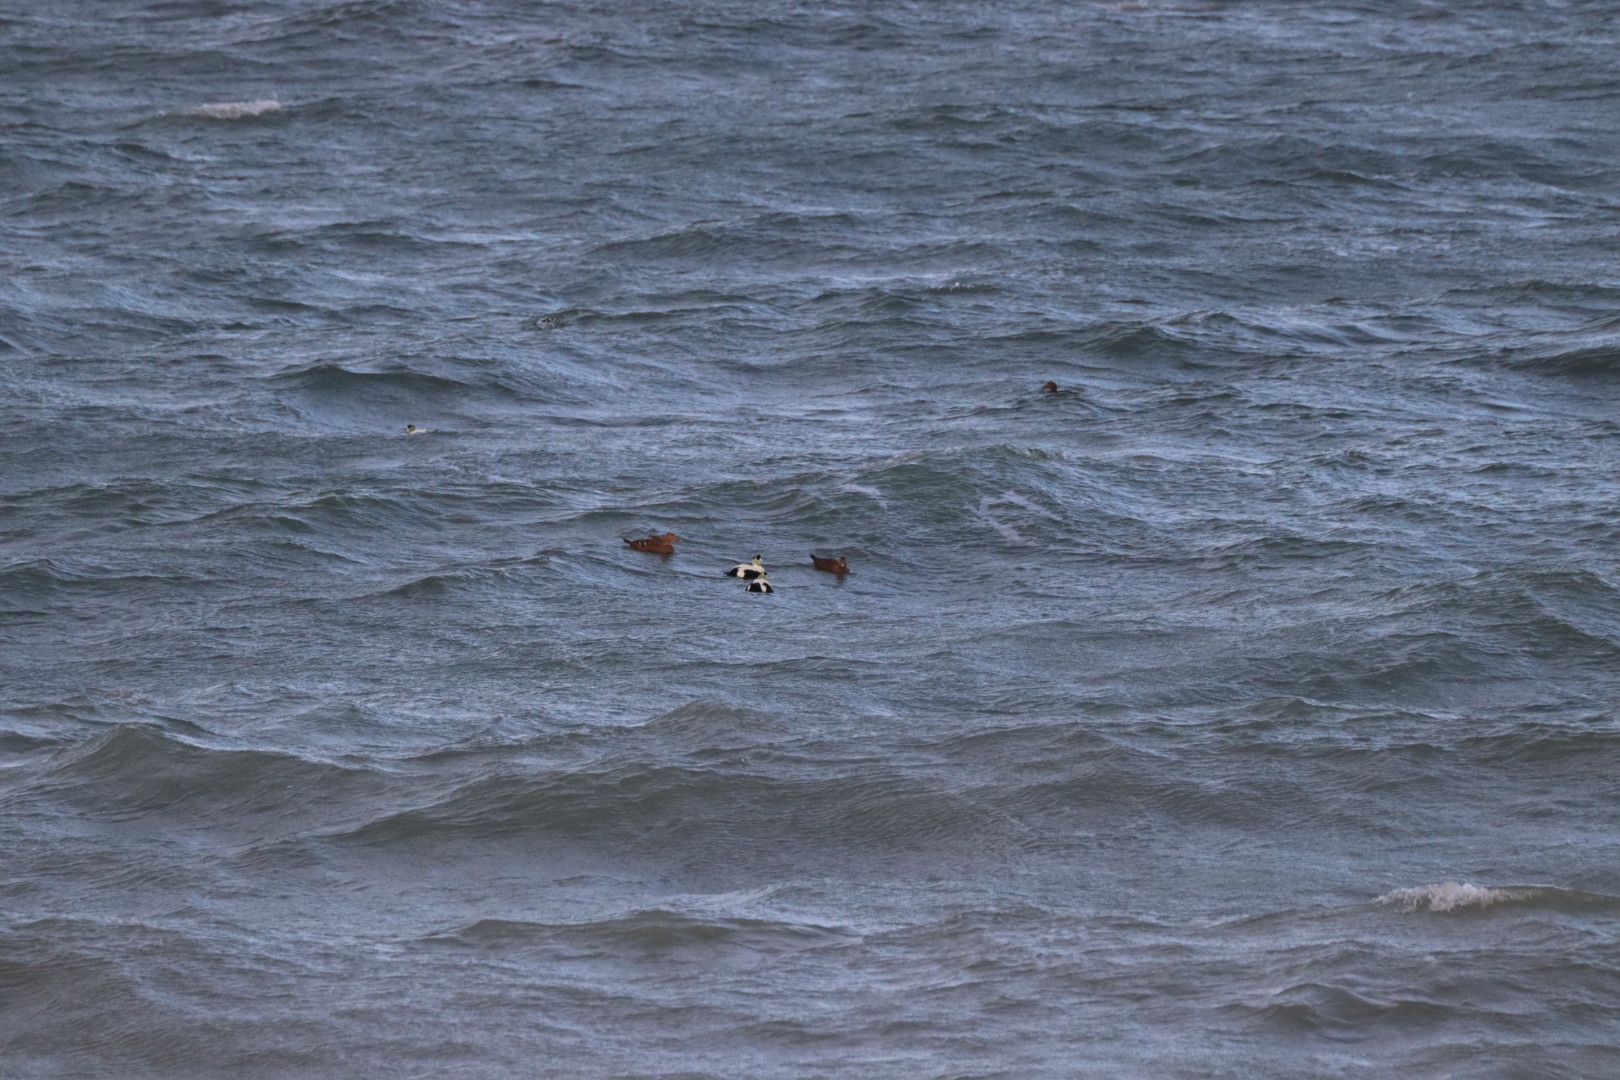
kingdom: Animalia
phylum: Chordata
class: Aves
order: Anseriformes
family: Anatidae
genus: Somateria
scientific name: Somateria mollissima
